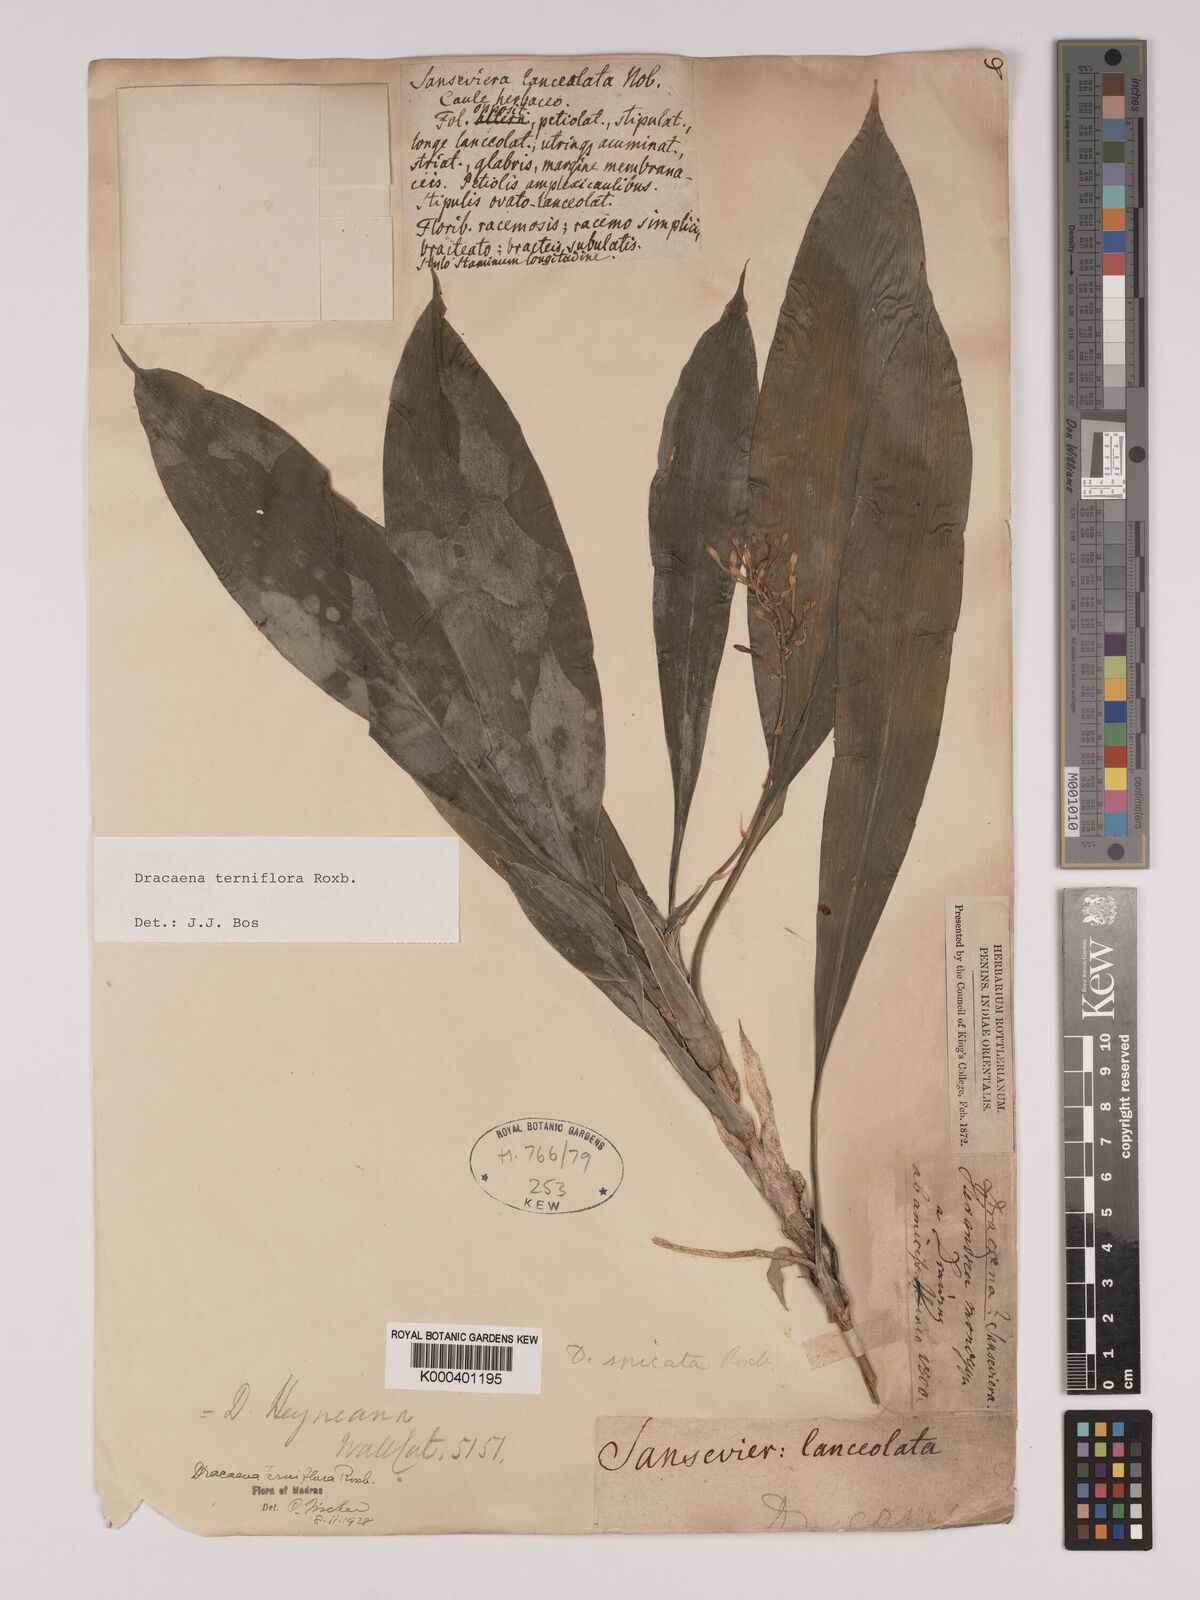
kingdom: Plantae
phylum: Tracheophyta
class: Liliopsida
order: Asparagales
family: Asparagaceae
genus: Dracaena
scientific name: Dracaena terniflora
